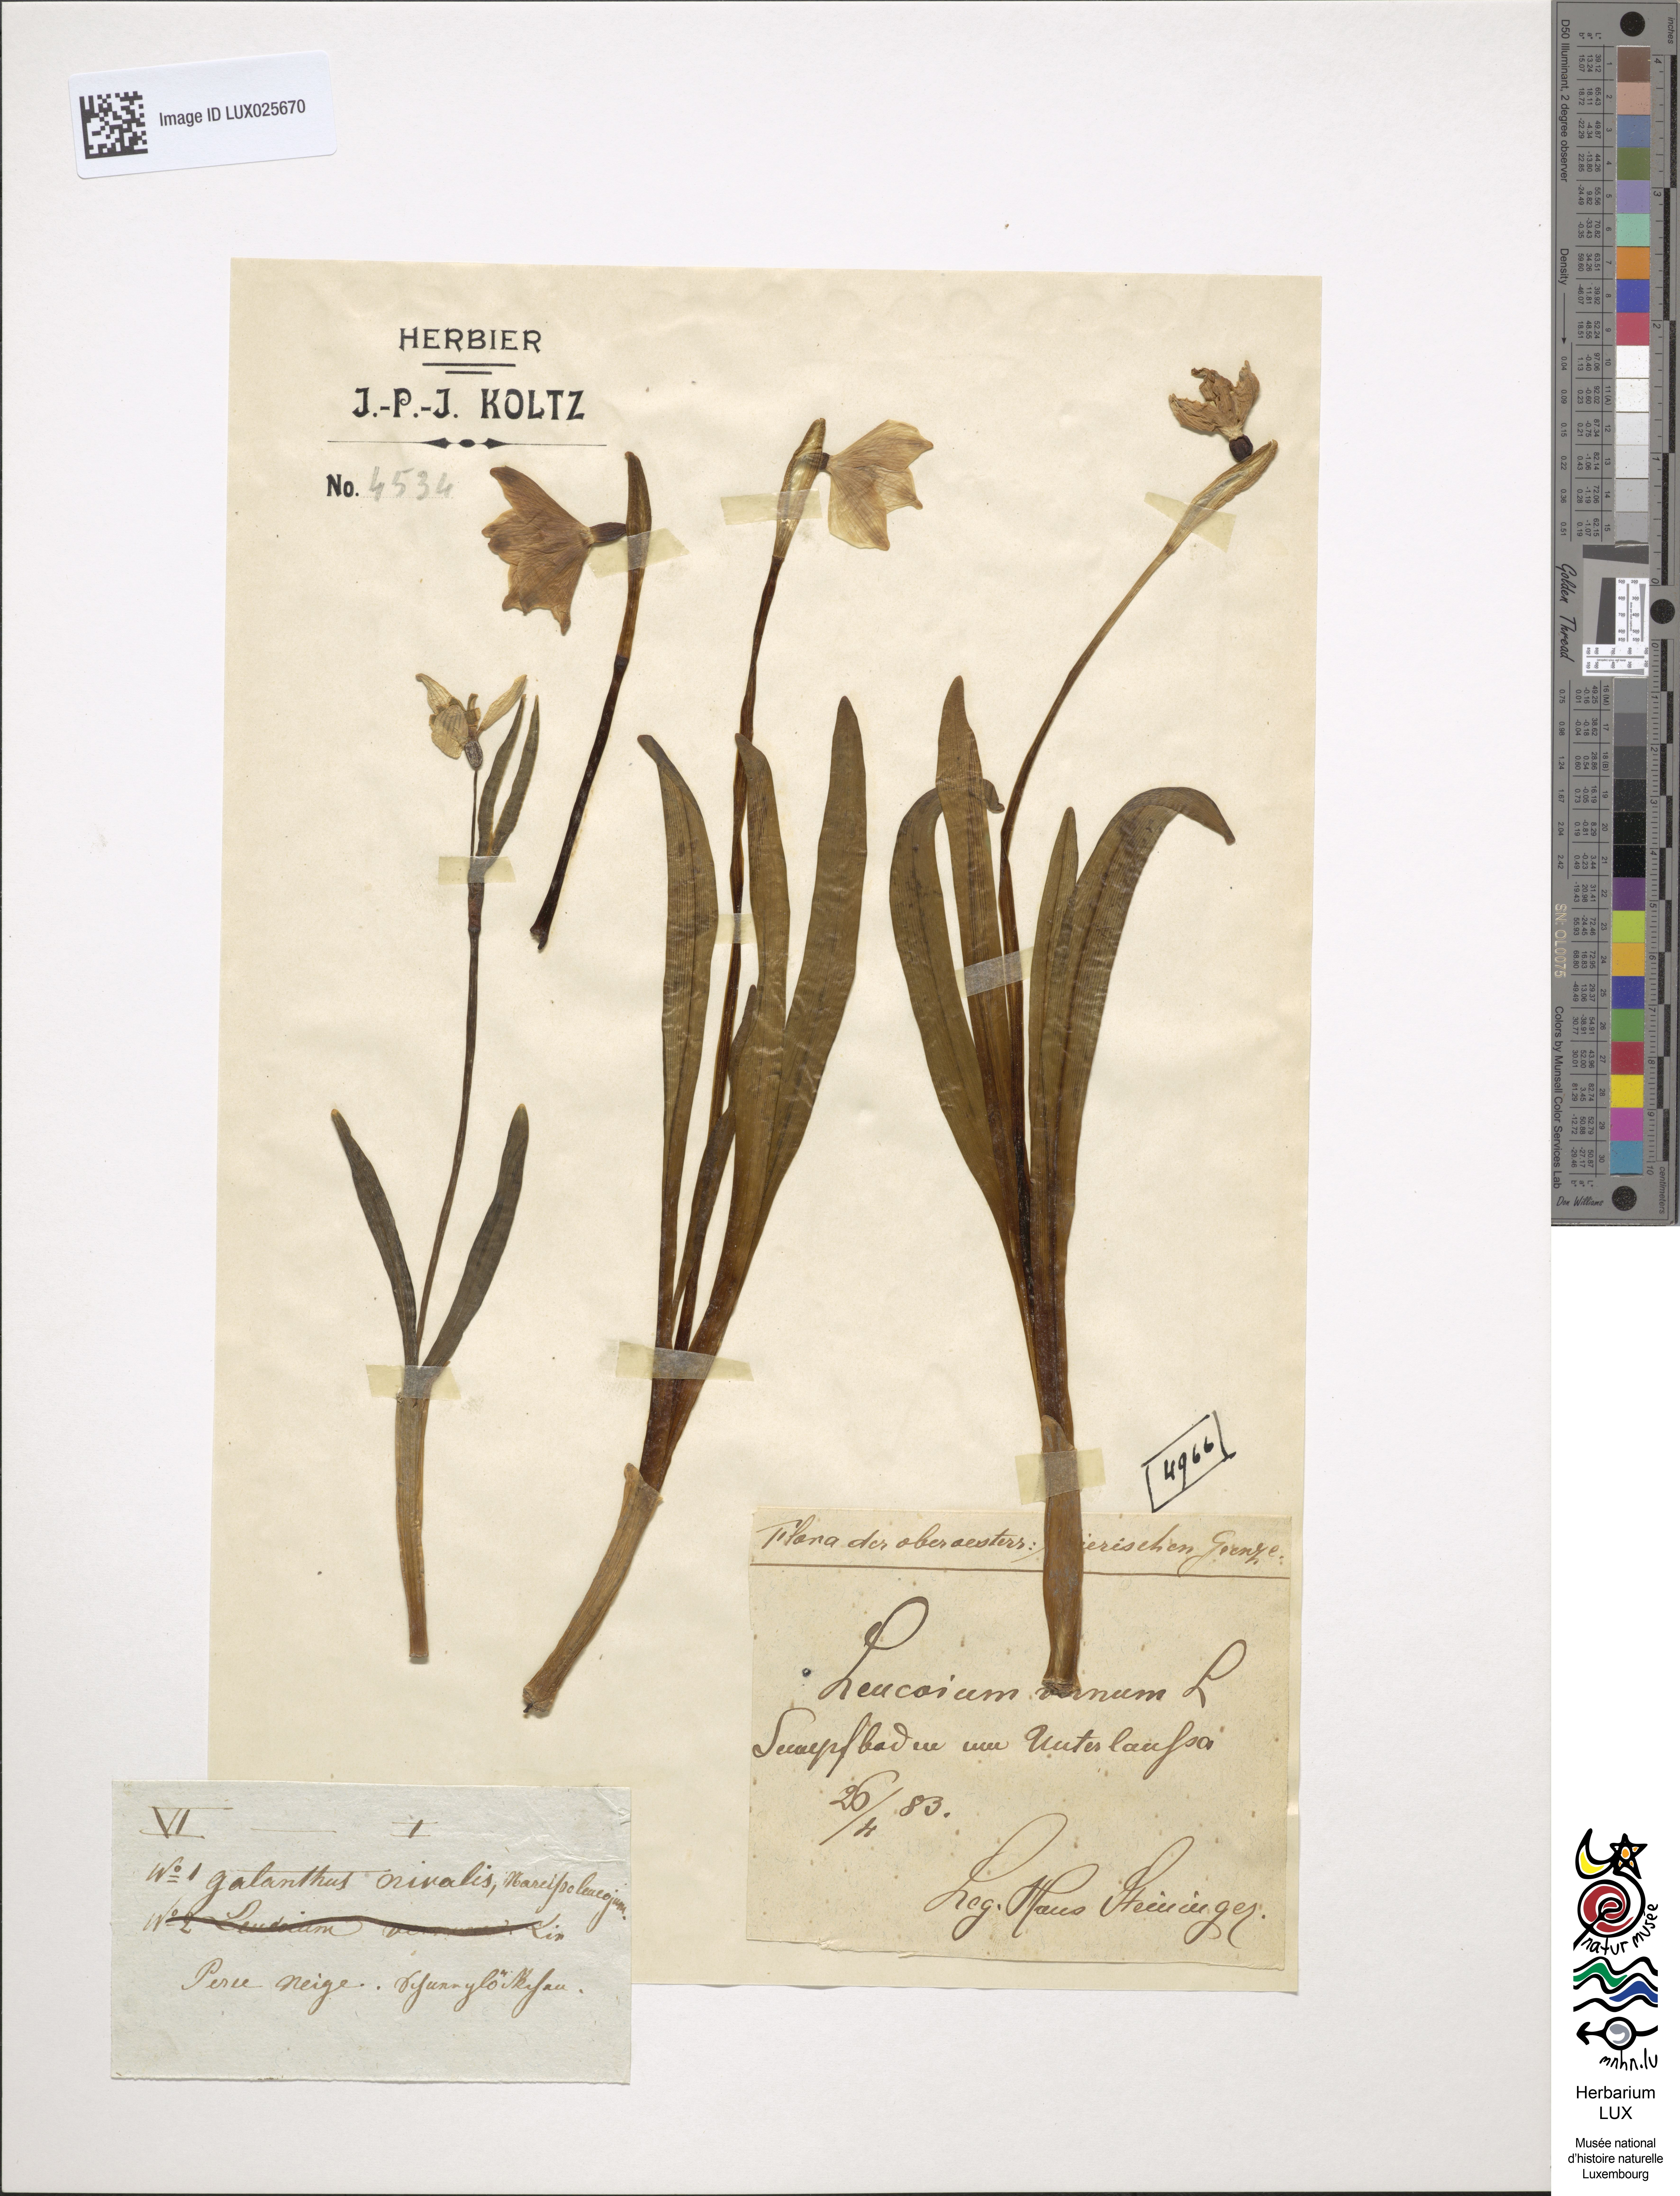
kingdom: Plantae
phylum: Tracheophyta
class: Liliopsida
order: Asparagales
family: Amaryllidaceae
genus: Leucojum
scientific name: Leucojum vernum
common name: Spring snowflake
